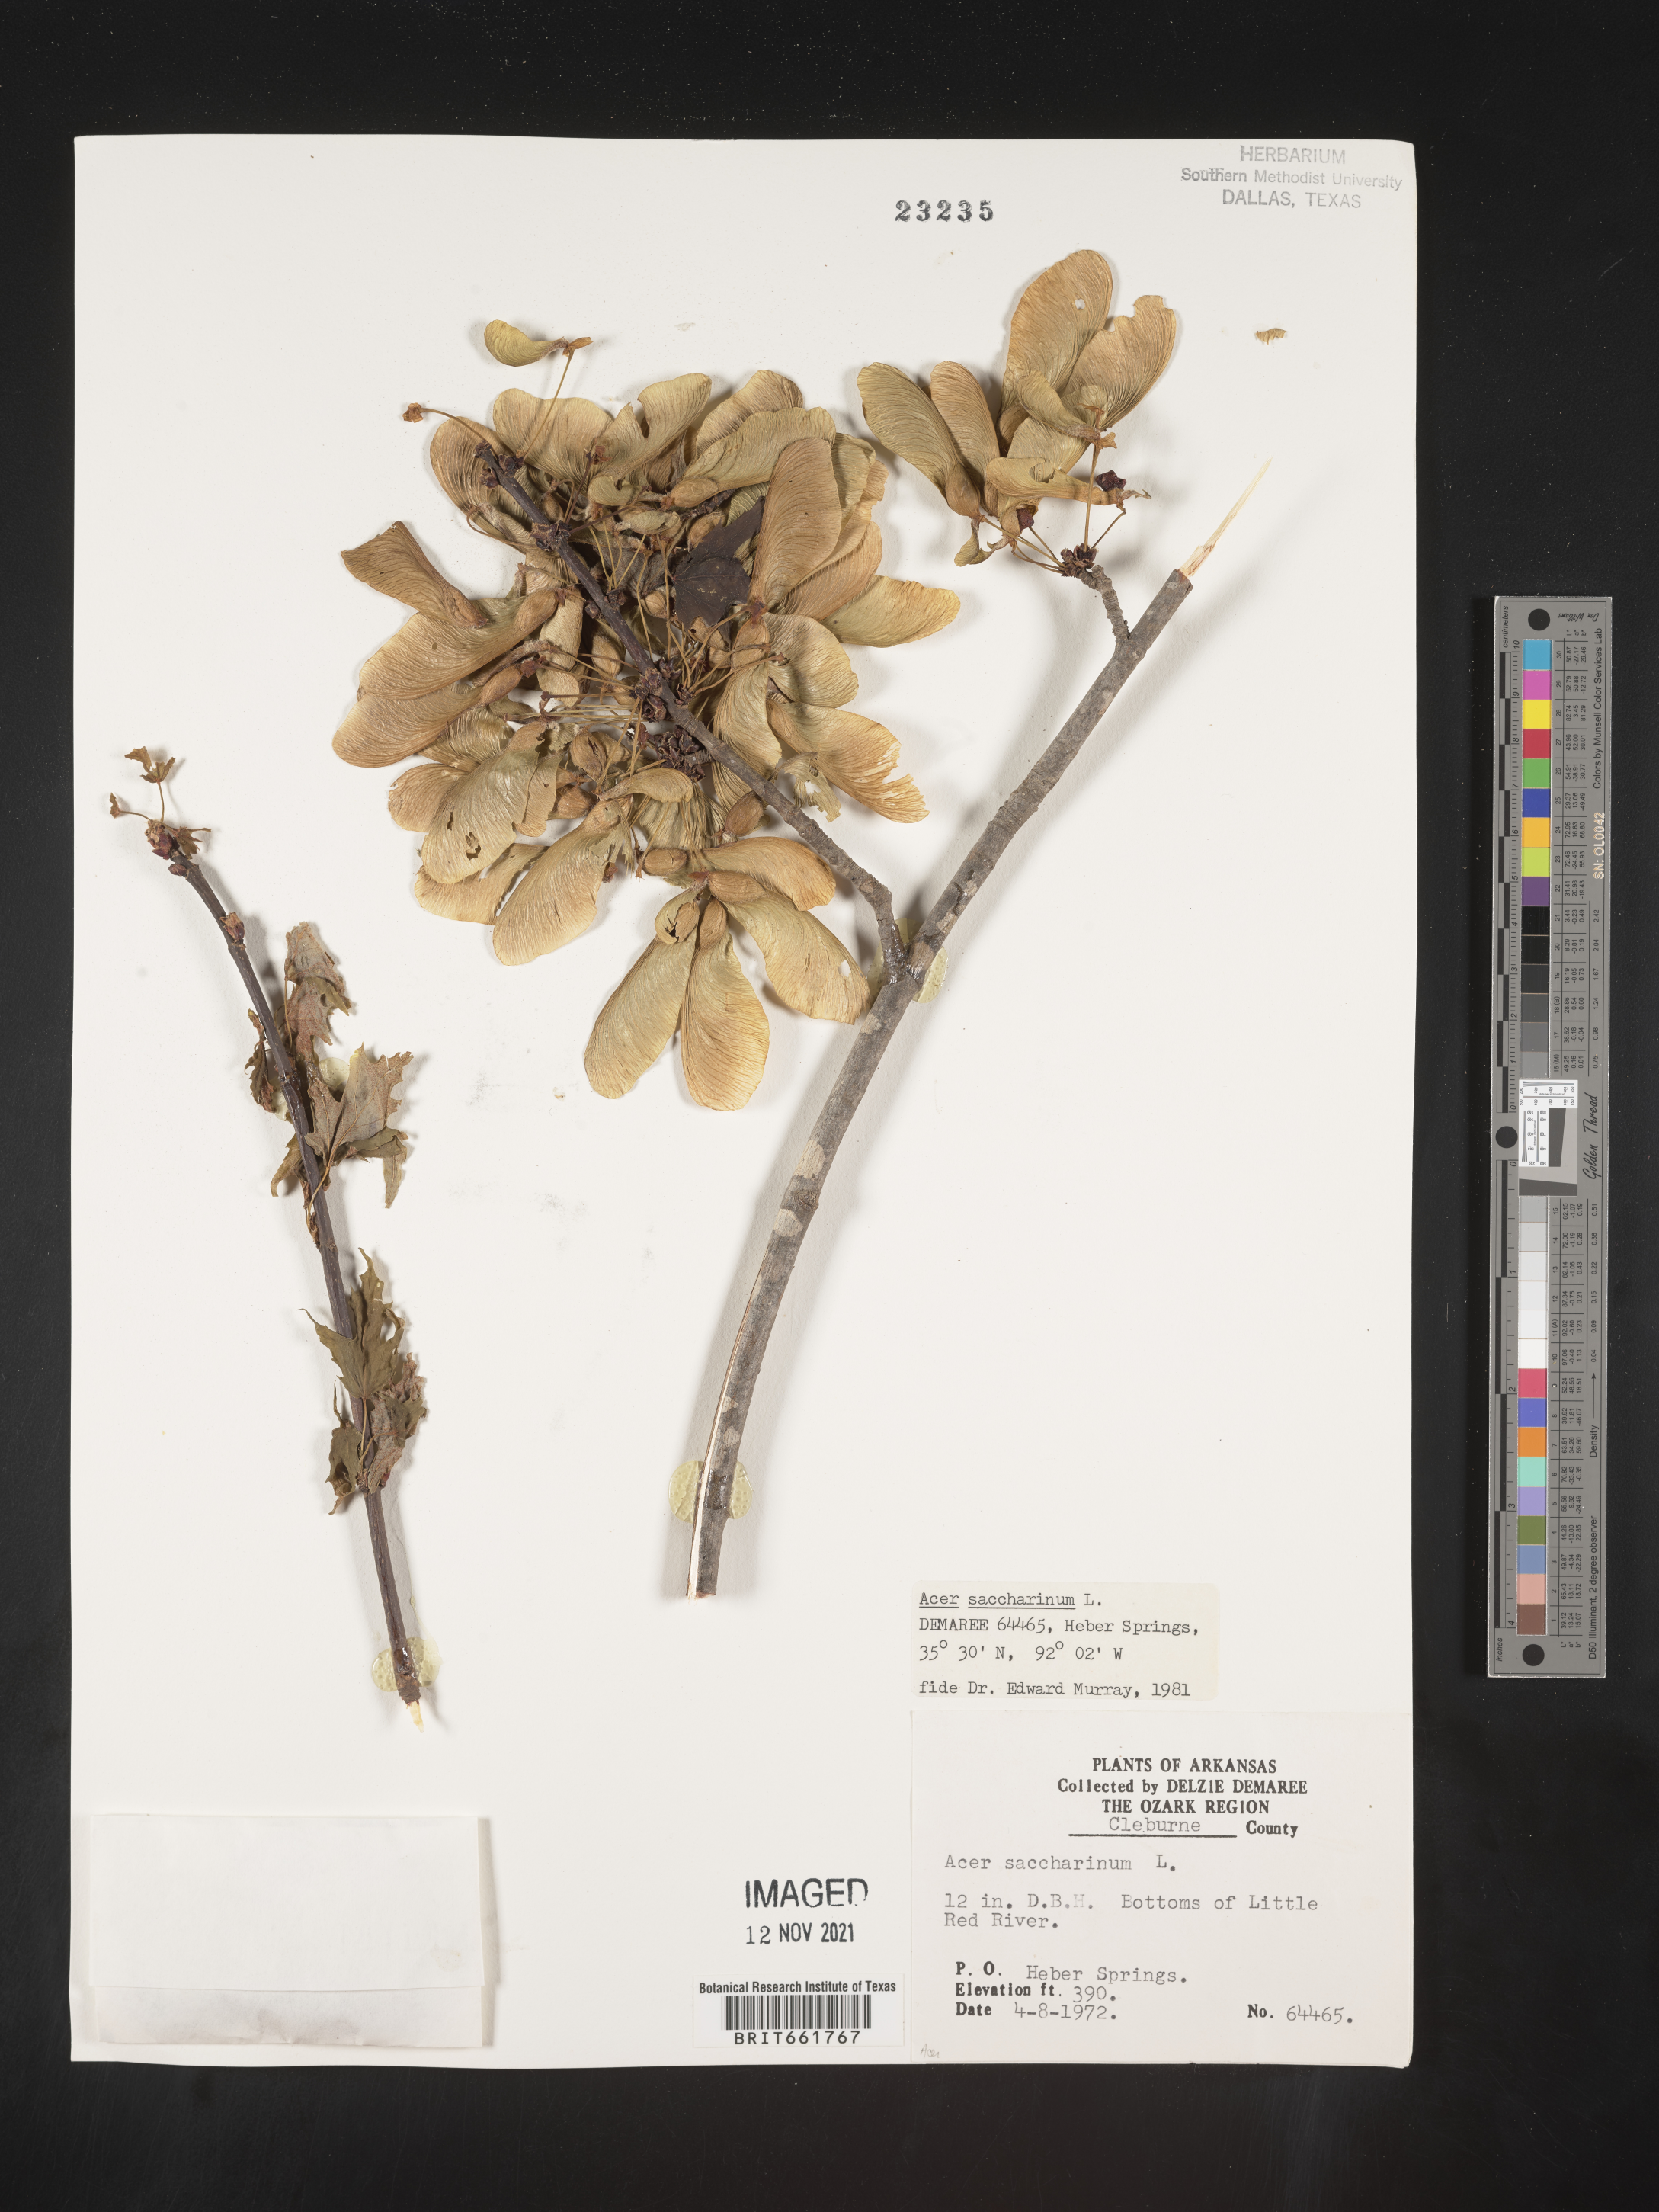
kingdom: Plantae
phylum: Tracheophyta
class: Magnoliopsida
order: Sapindales
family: Sapindaceae
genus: Acer
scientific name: Acer saccharinum
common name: Silver maple
